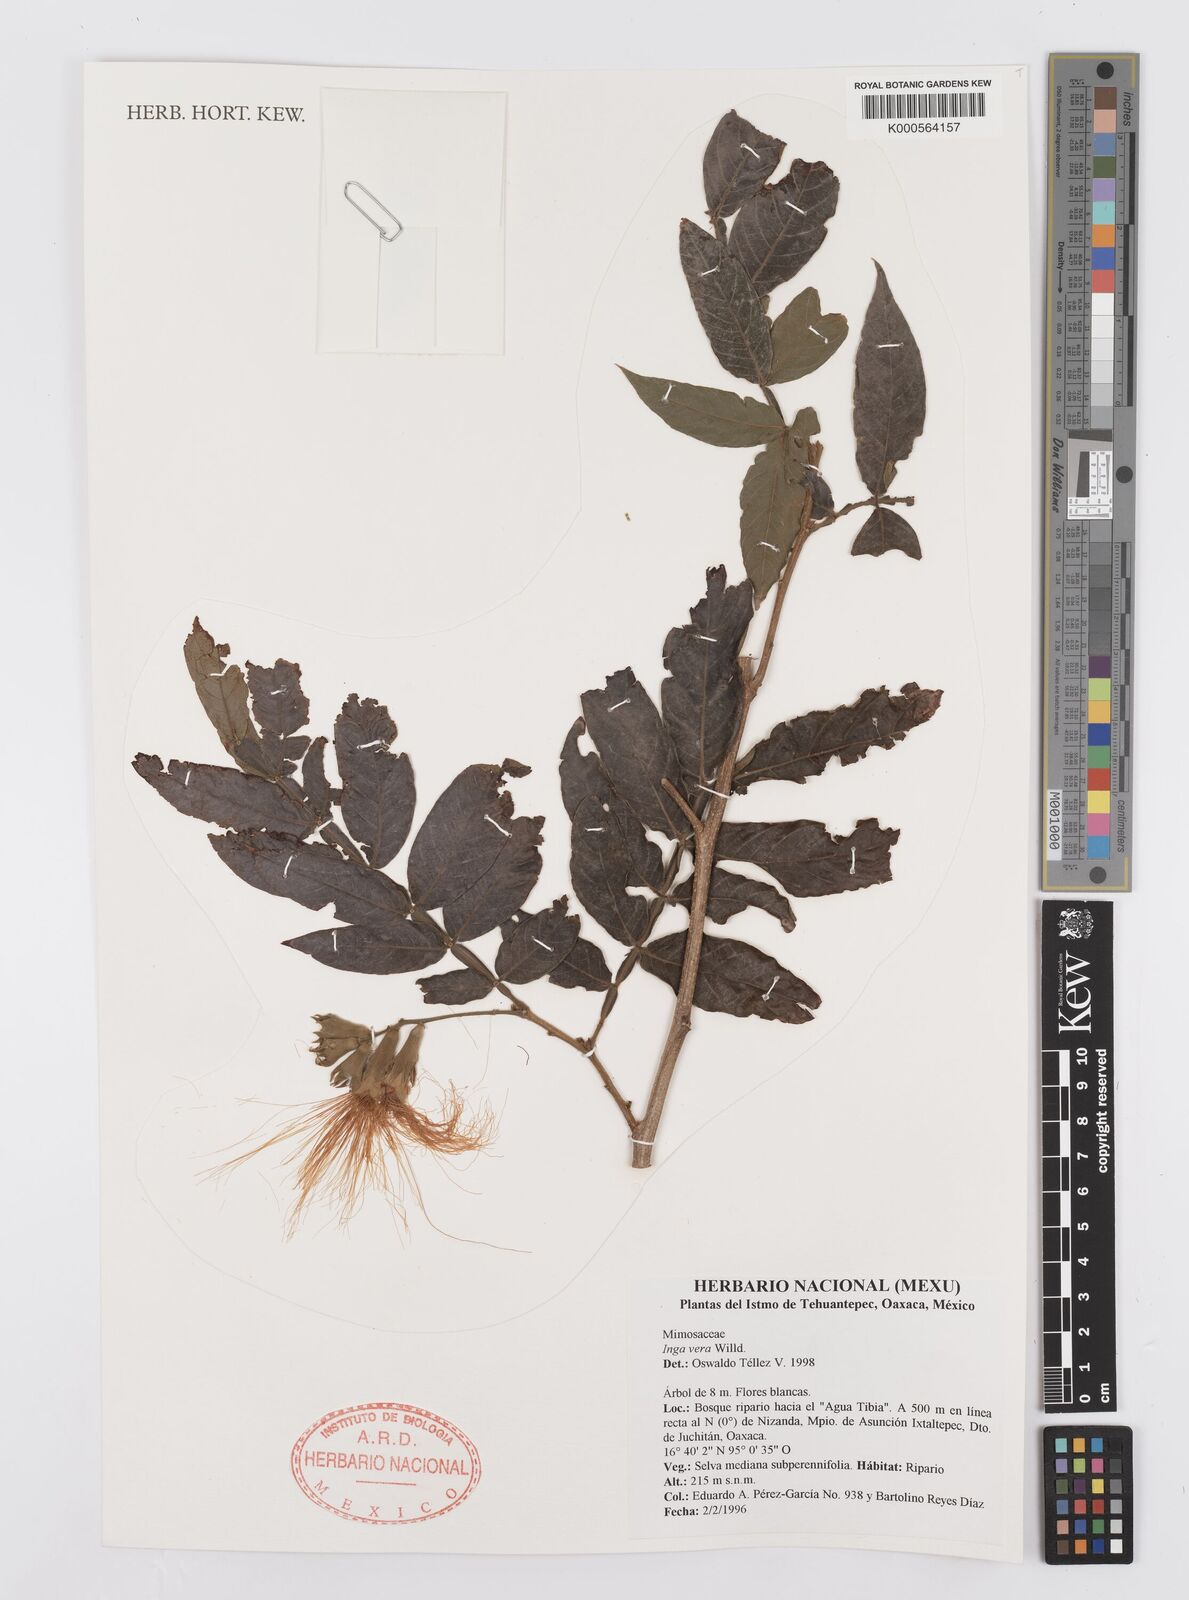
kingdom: Plantae
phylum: Tracheophyta
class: Magnoliopsida
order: Fabales
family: Fabaceae
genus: Inga
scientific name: Inga vera
